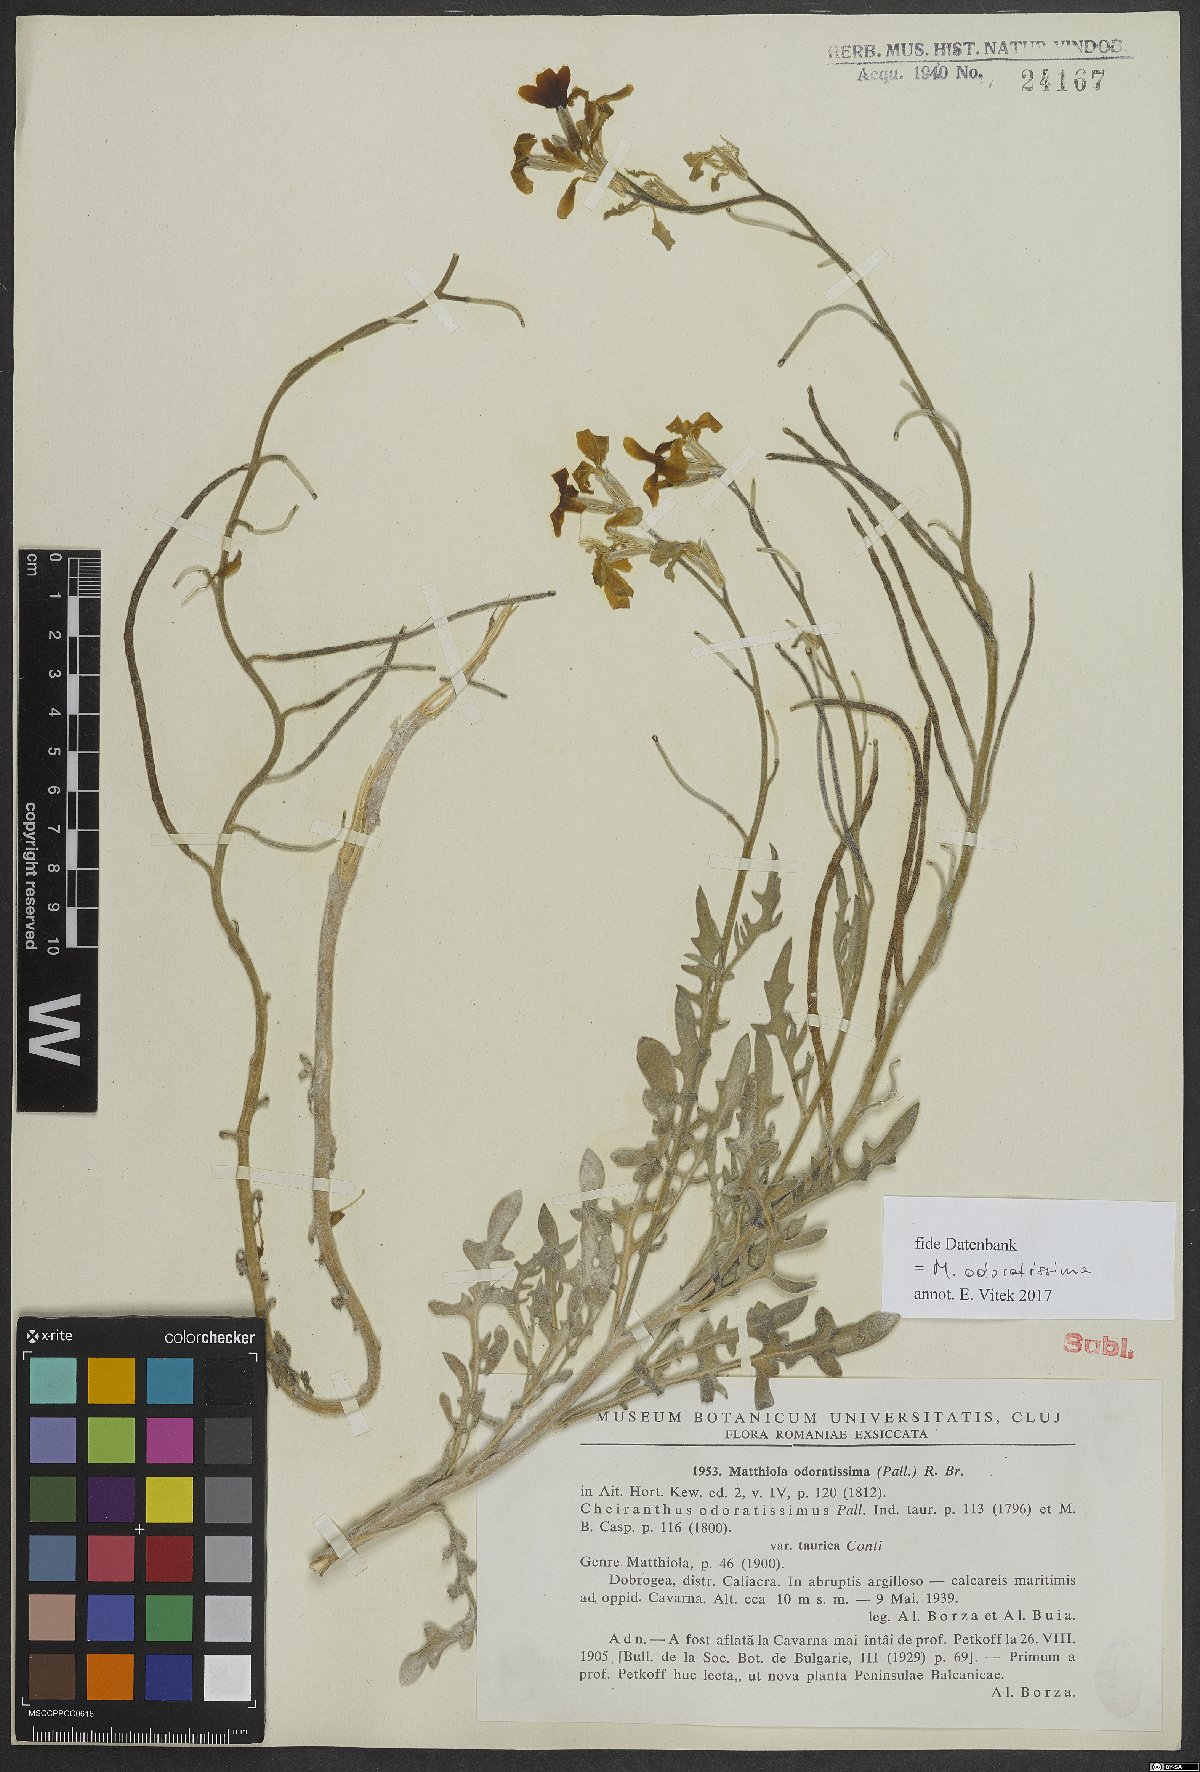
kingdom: Plantae
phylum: Tracheophyta
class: Magnoliopsida
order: Brassicales
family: Brassicaceae
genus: Matthiola
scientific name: Matthiola odoratissima
